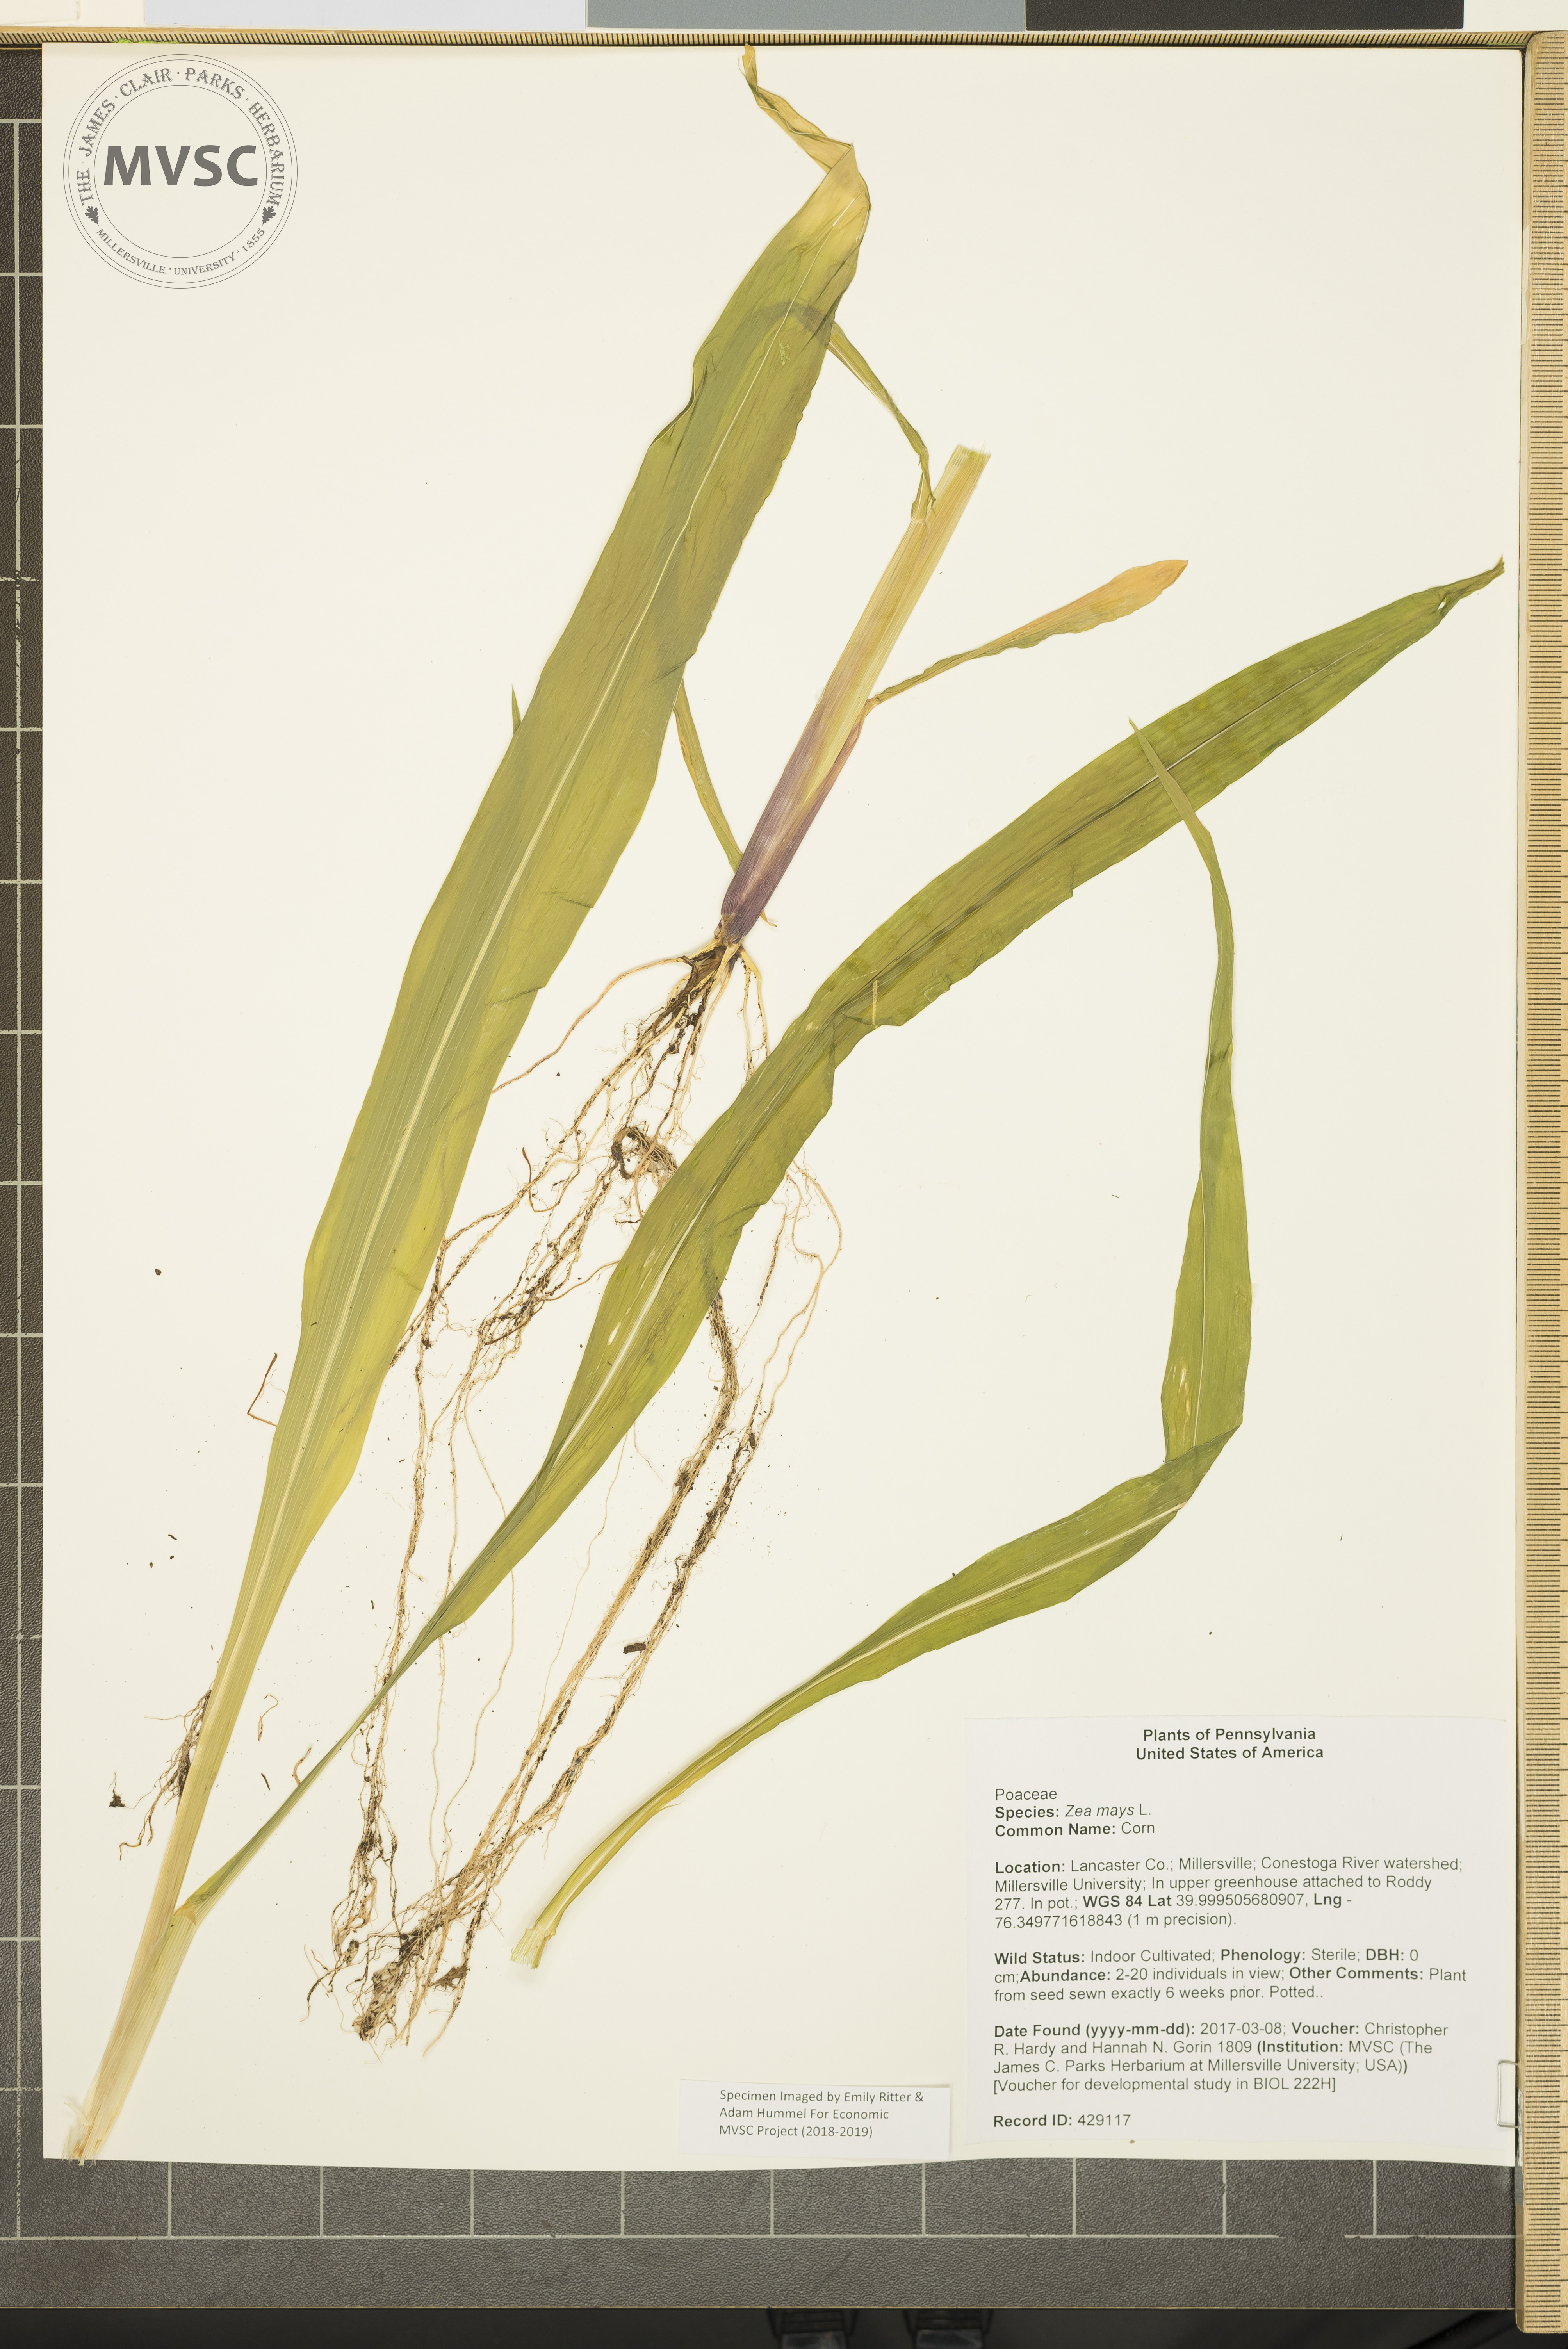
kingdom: Plantae
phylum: Tracheophyta
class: Liliopsida
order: Poales
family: Poaceae
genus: Zea
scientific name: Zea mays
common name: Corn
